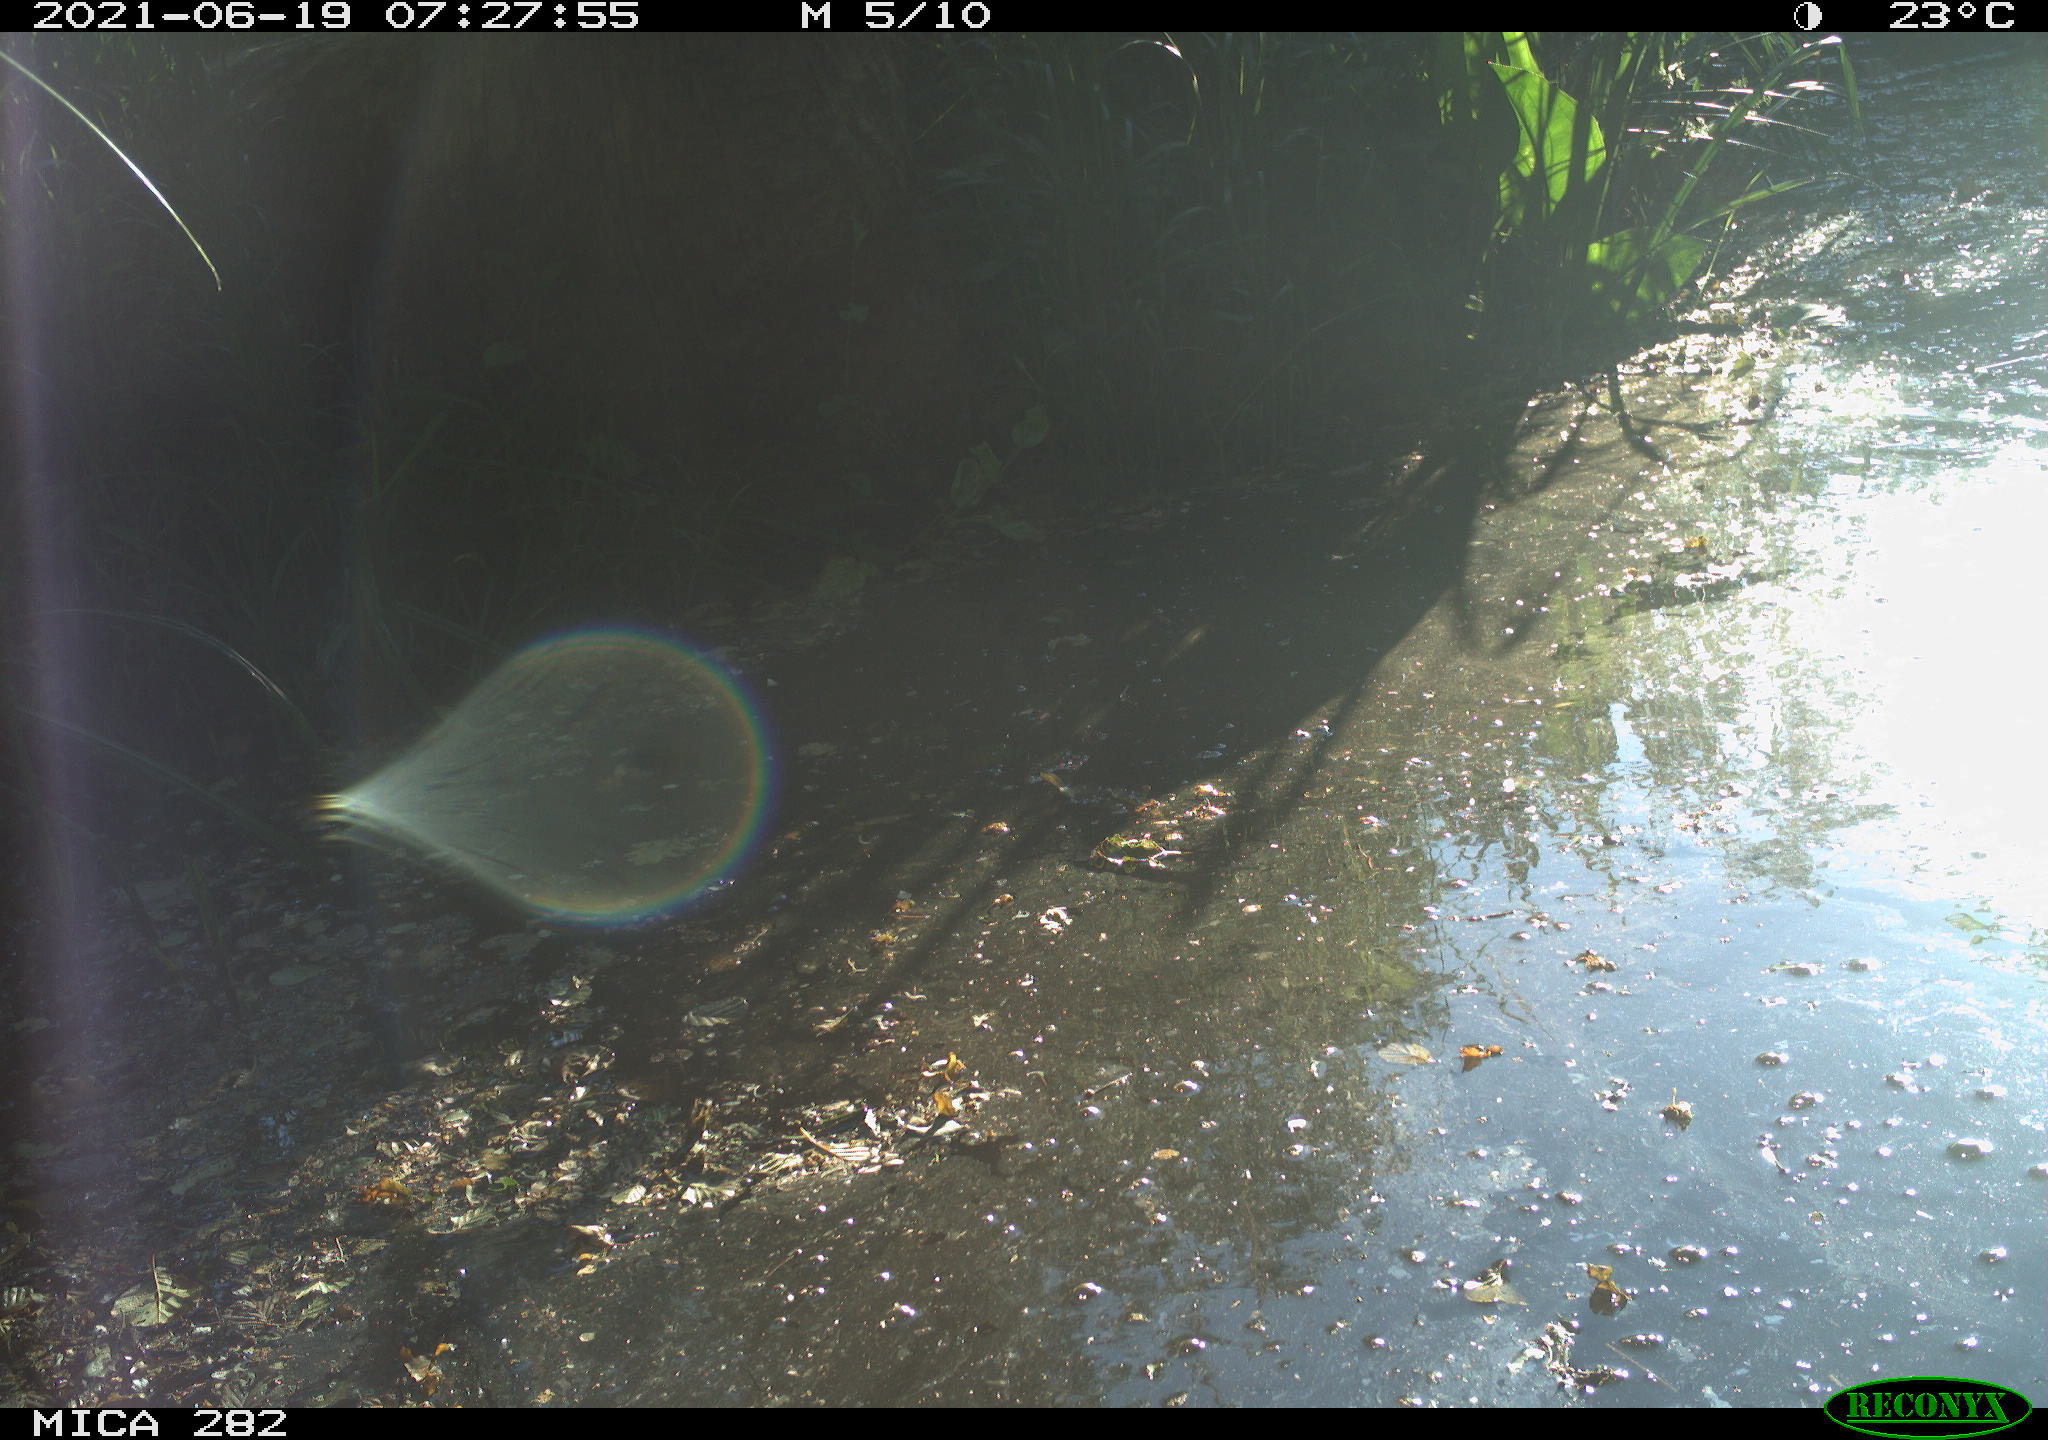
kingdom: Animalia
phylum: Chordata
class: Aves
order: Anseriformes
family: Anatidae
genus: Anser
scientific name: Anser anser
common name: Greylag goose
